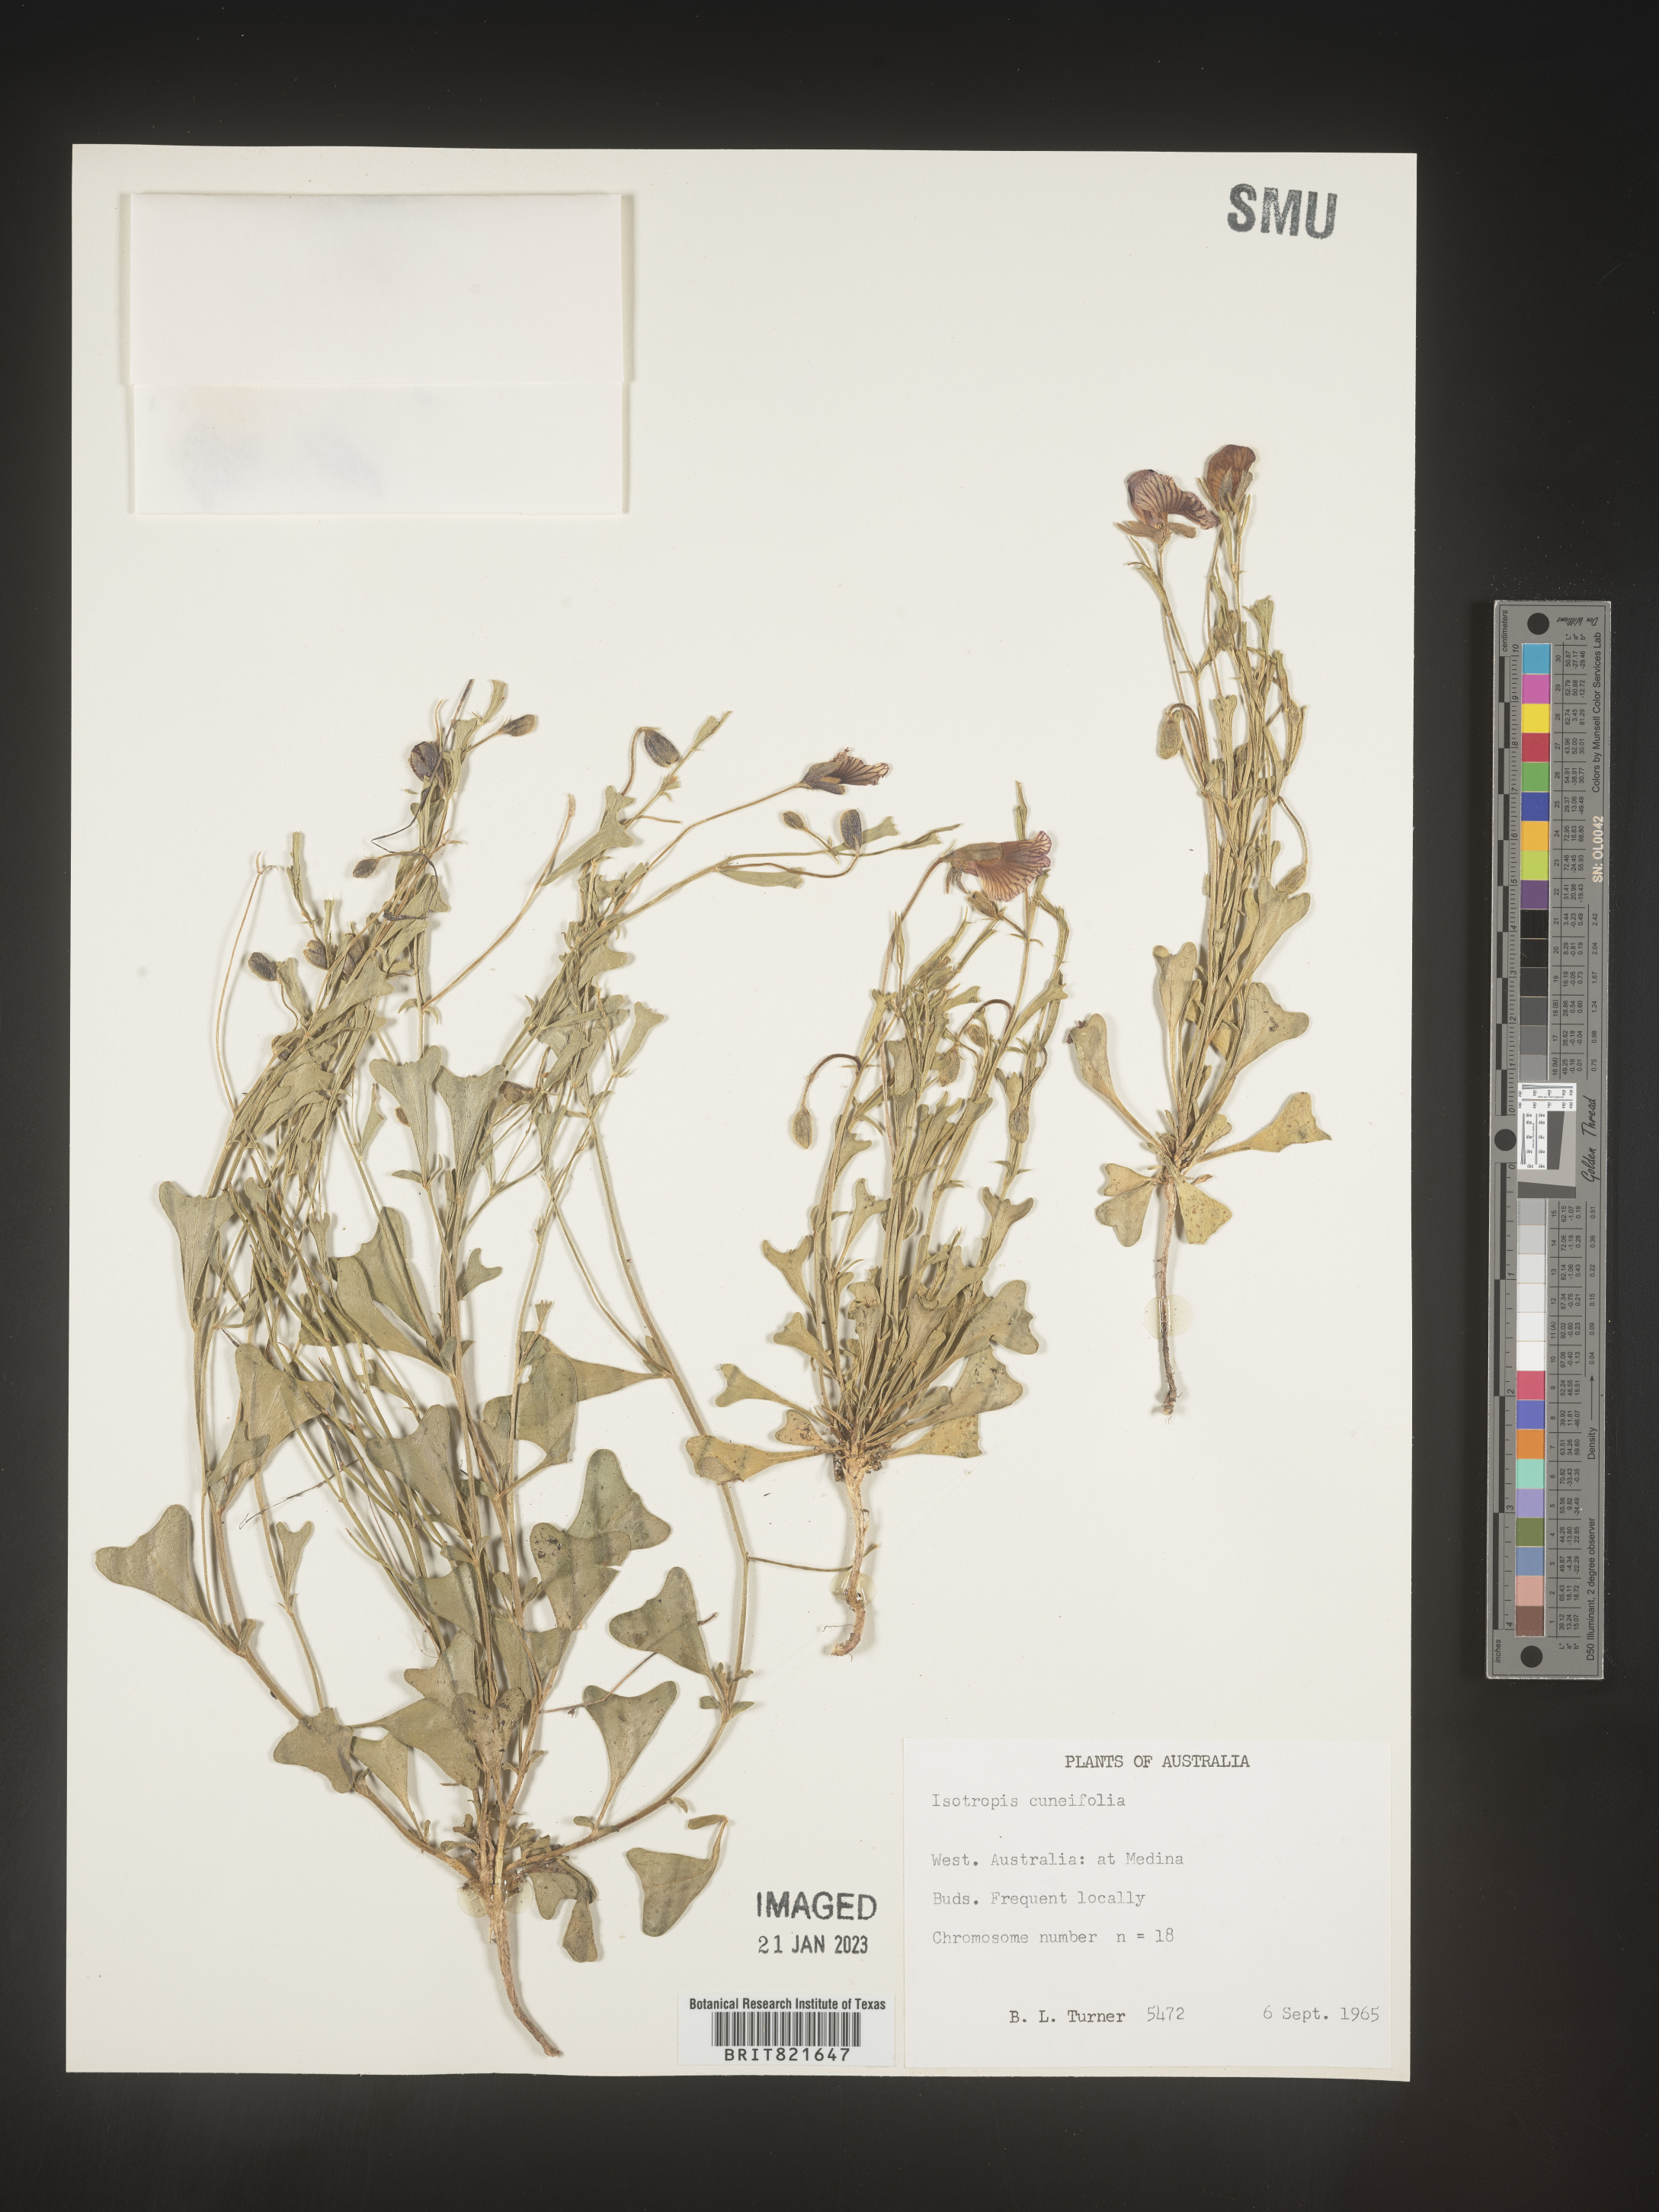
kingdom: Plantae
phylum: Tracheophyta
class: Magnoliopsida
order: Fabales
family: Fabaceae
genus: Isotropis
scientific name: Isotropis
